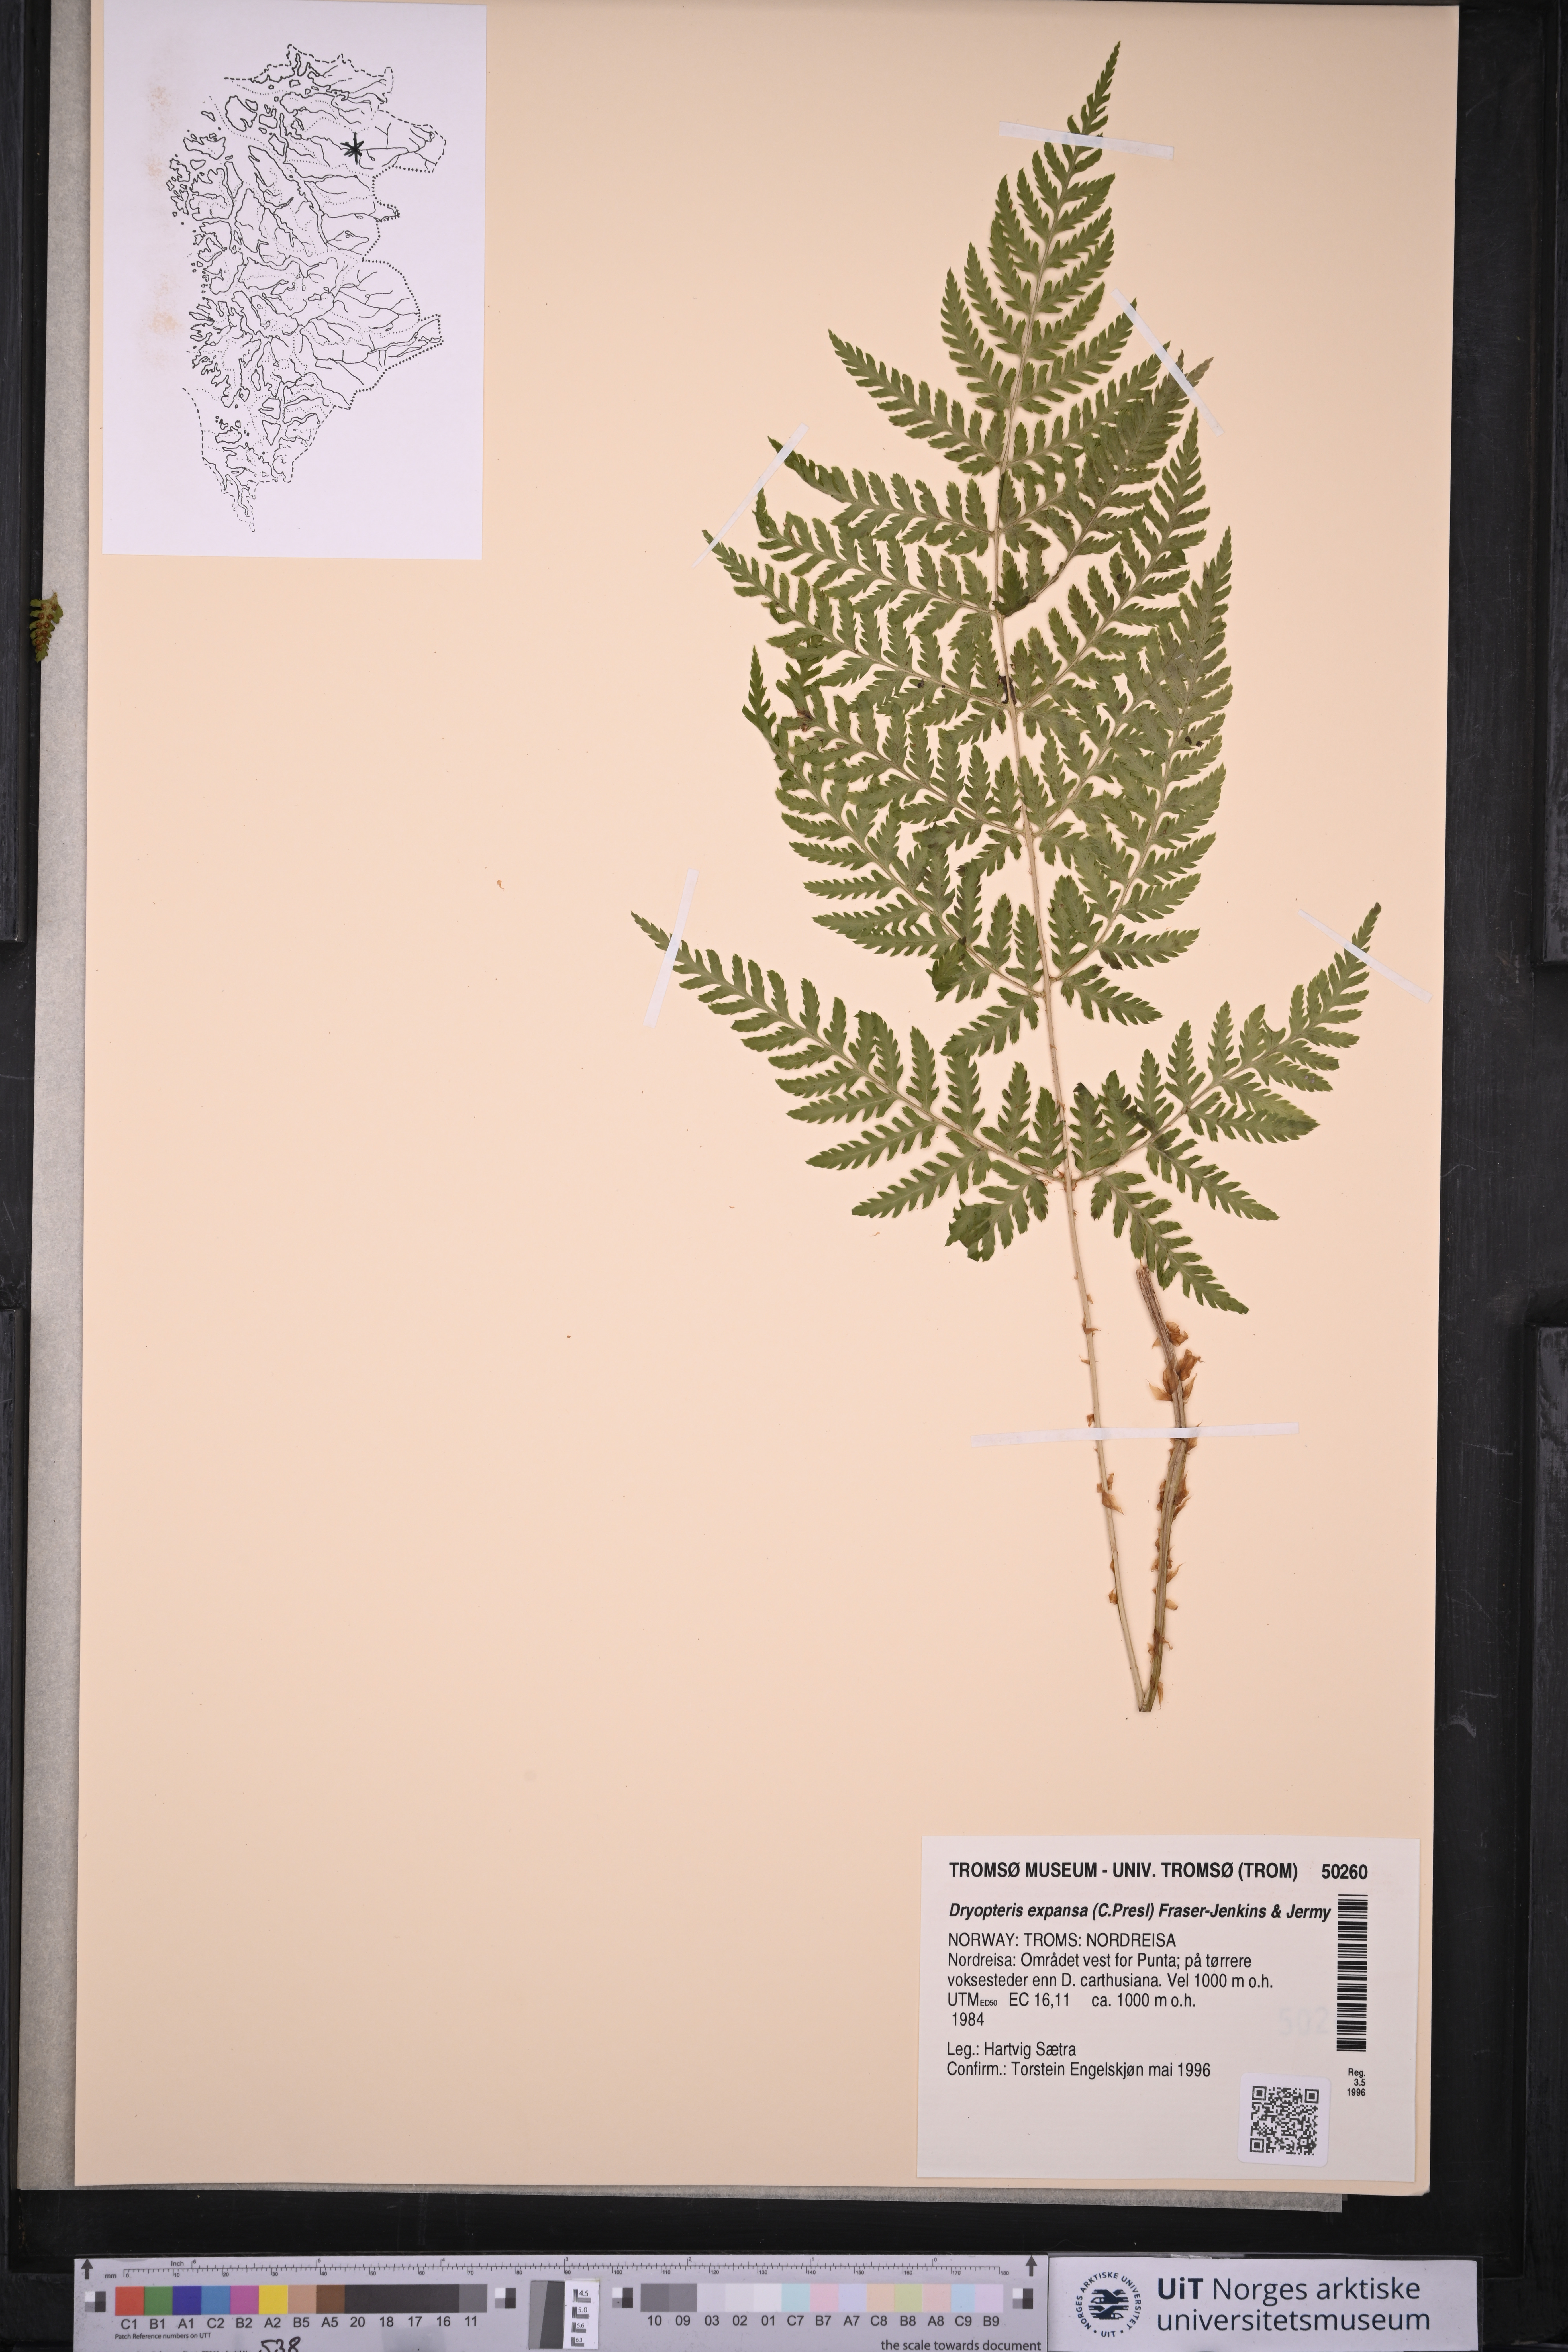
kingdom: Plantae
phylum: Tracheophyta
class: Polypodiopsida
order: Polypodiales
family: Dryopteridaceae
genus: Dryopteris
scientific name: Dryopteris expansa
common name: Northern buckler fern
